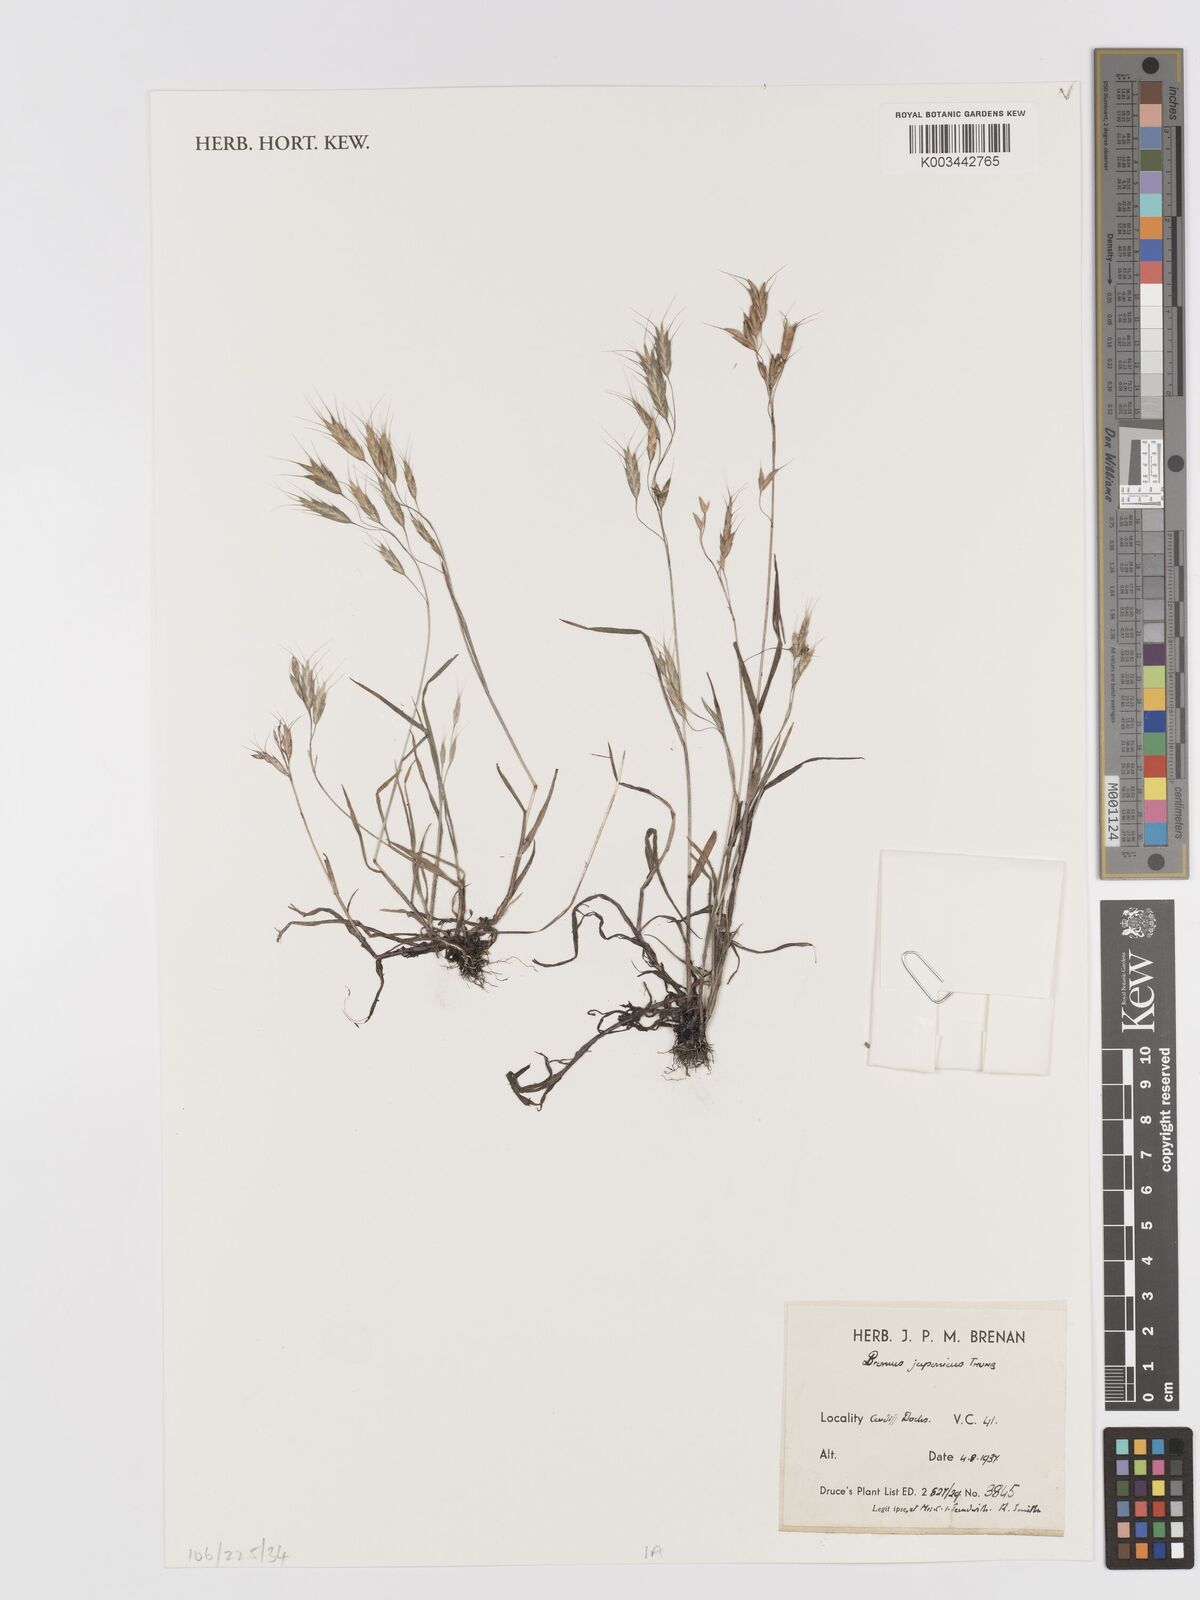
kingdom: Plantae
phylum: Tracheophyta
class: Liliopsida
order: Poales
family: Poaceae
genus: Bromus
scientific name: Bromus japonicus
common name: Japanese brome
